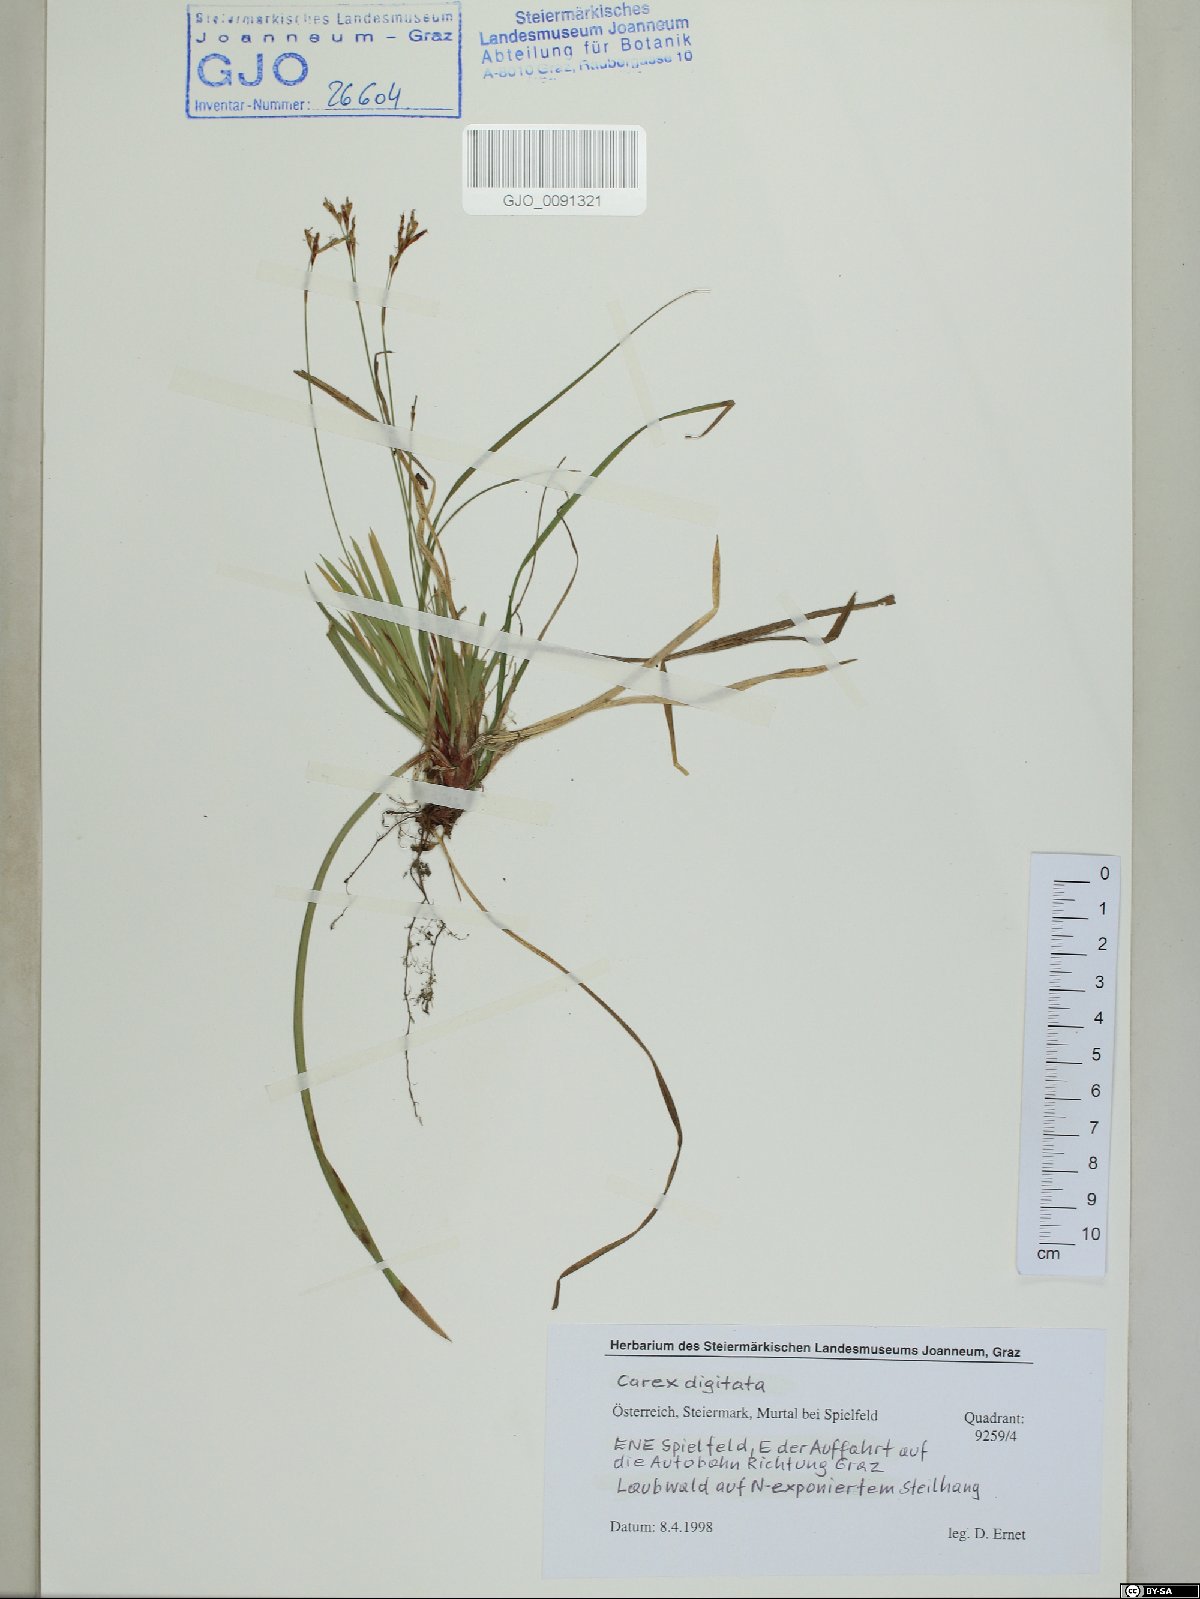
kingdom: Plantae
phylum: Tracheophyta
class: Liliopsida
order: Poales
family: Cyperaceae
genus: Carex
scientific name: Carex digitata
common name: Fingered sedge
